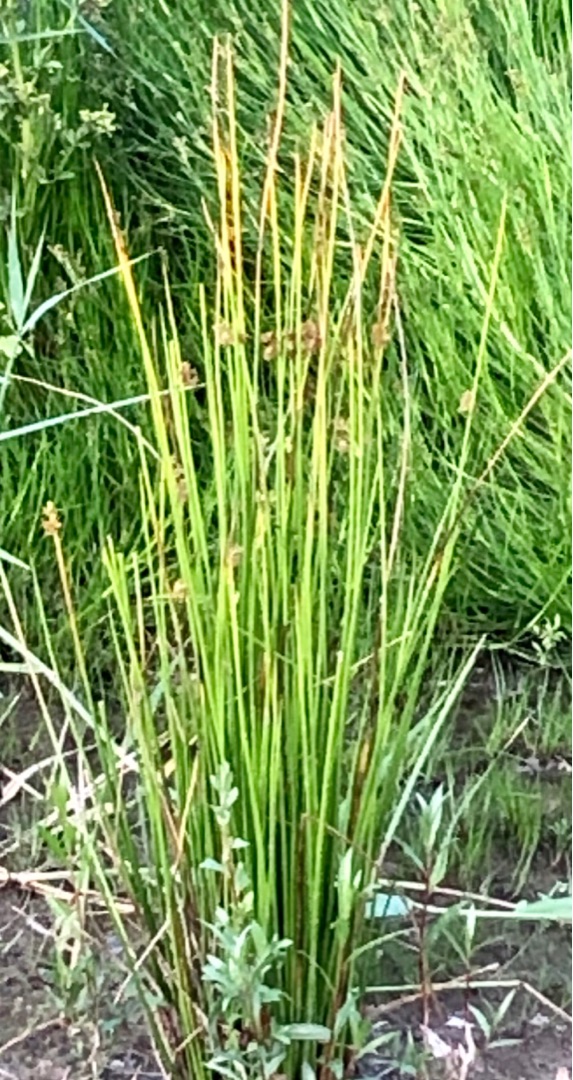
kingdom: Plantae
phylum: Tracheophyta
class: Liliopsida
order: Poales
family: Juncaceae
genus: Juncus
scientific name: Juncus effusus
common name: Lyse-siv
